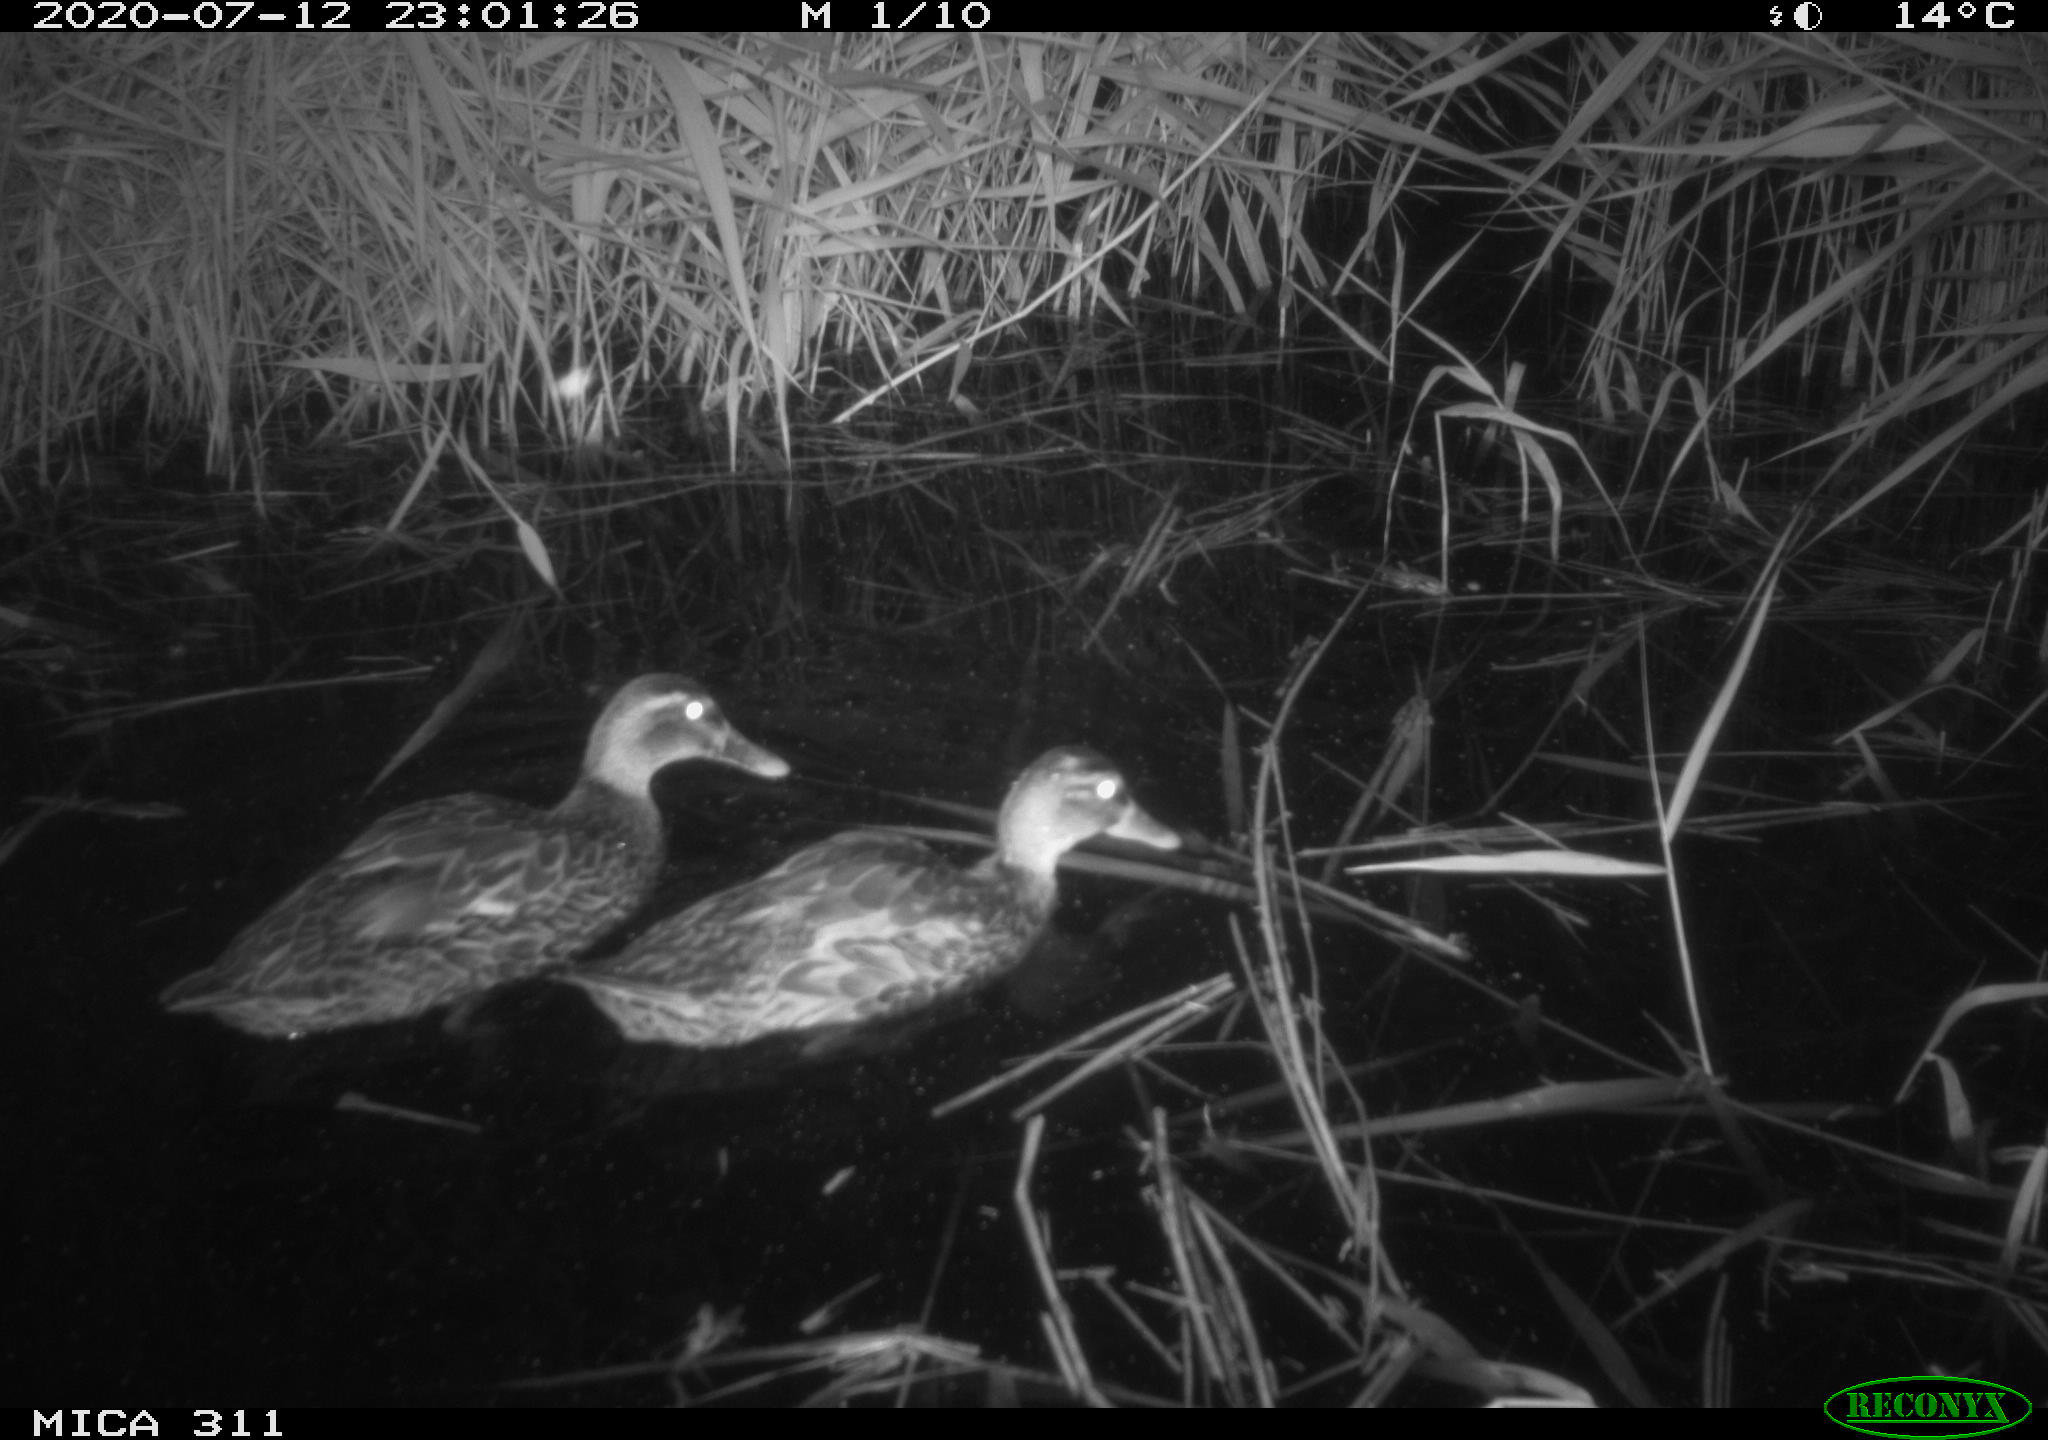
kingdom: Animalia
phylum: Chordata
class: Aves
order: Anseriformes
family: Anatidae
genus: Anas
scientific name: Anas platyrhynchos
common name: Mallard
